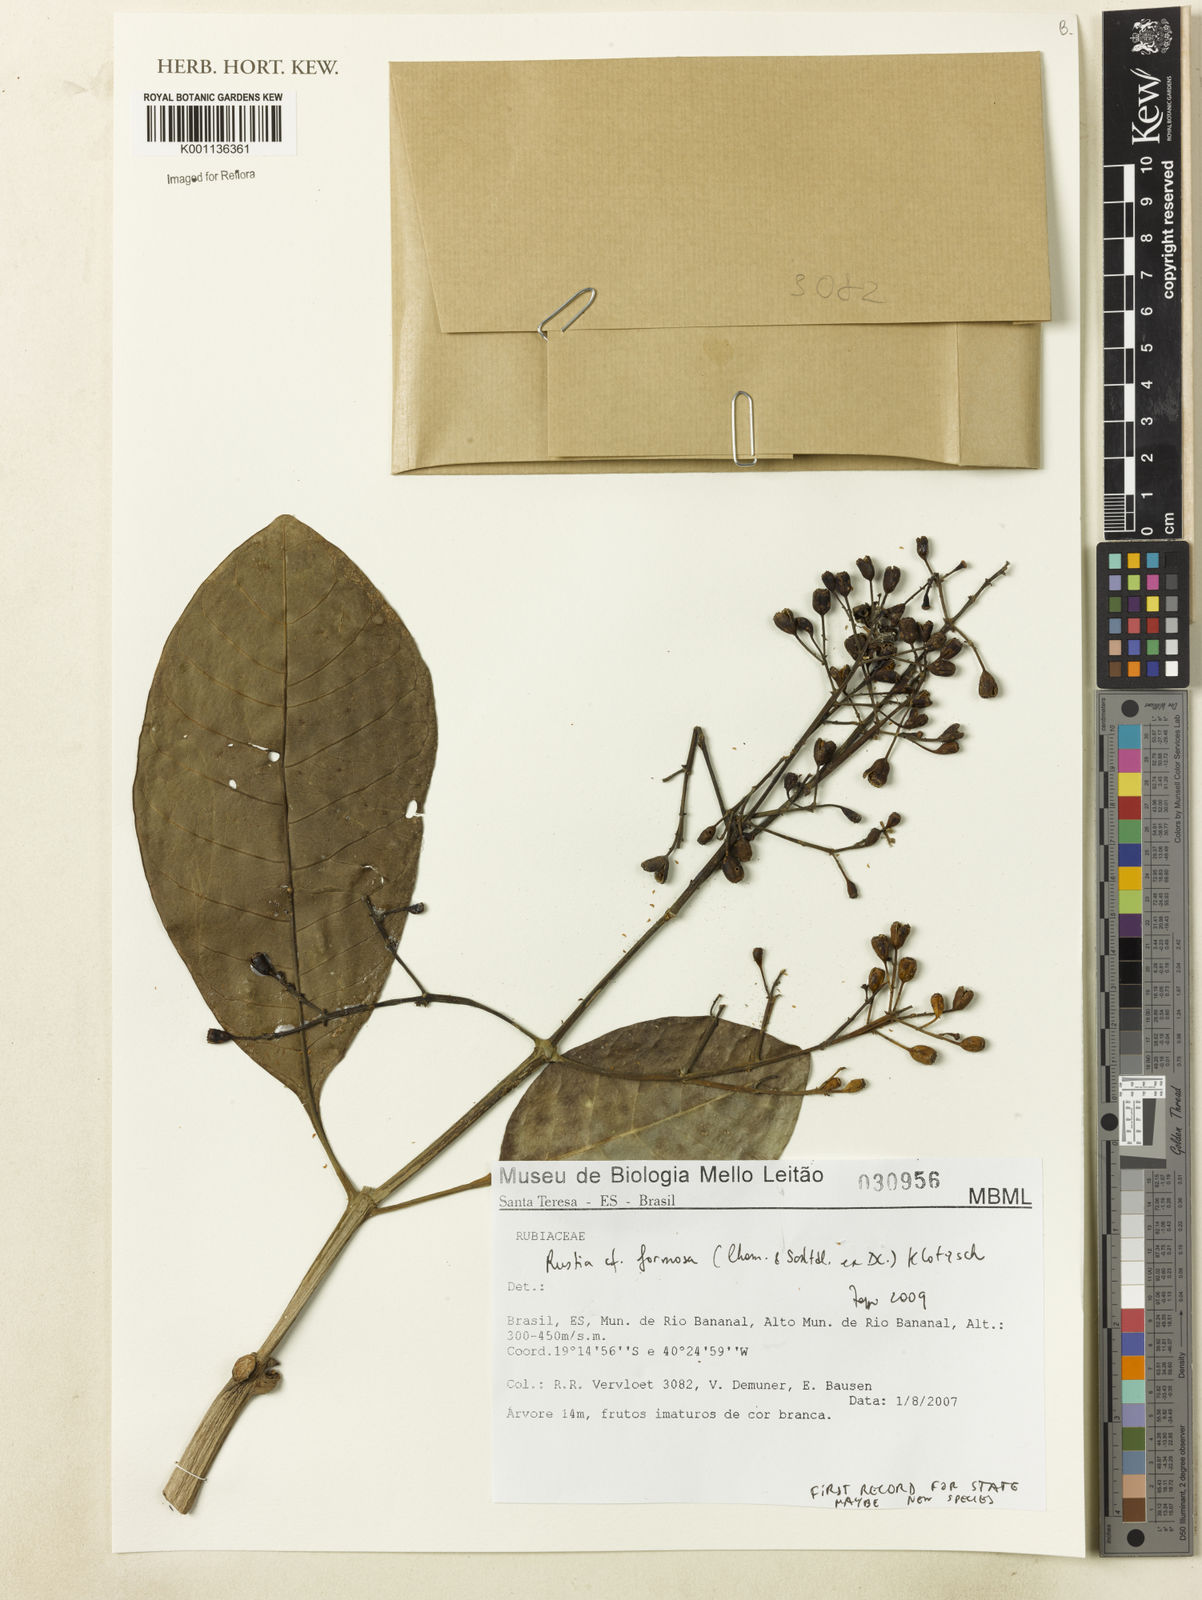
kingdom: Plantae
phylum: Tracheophyta
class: Magnoliopsida
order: Gentianales
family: Rubiaceae
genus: Rustia
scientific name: Rustia formosa
